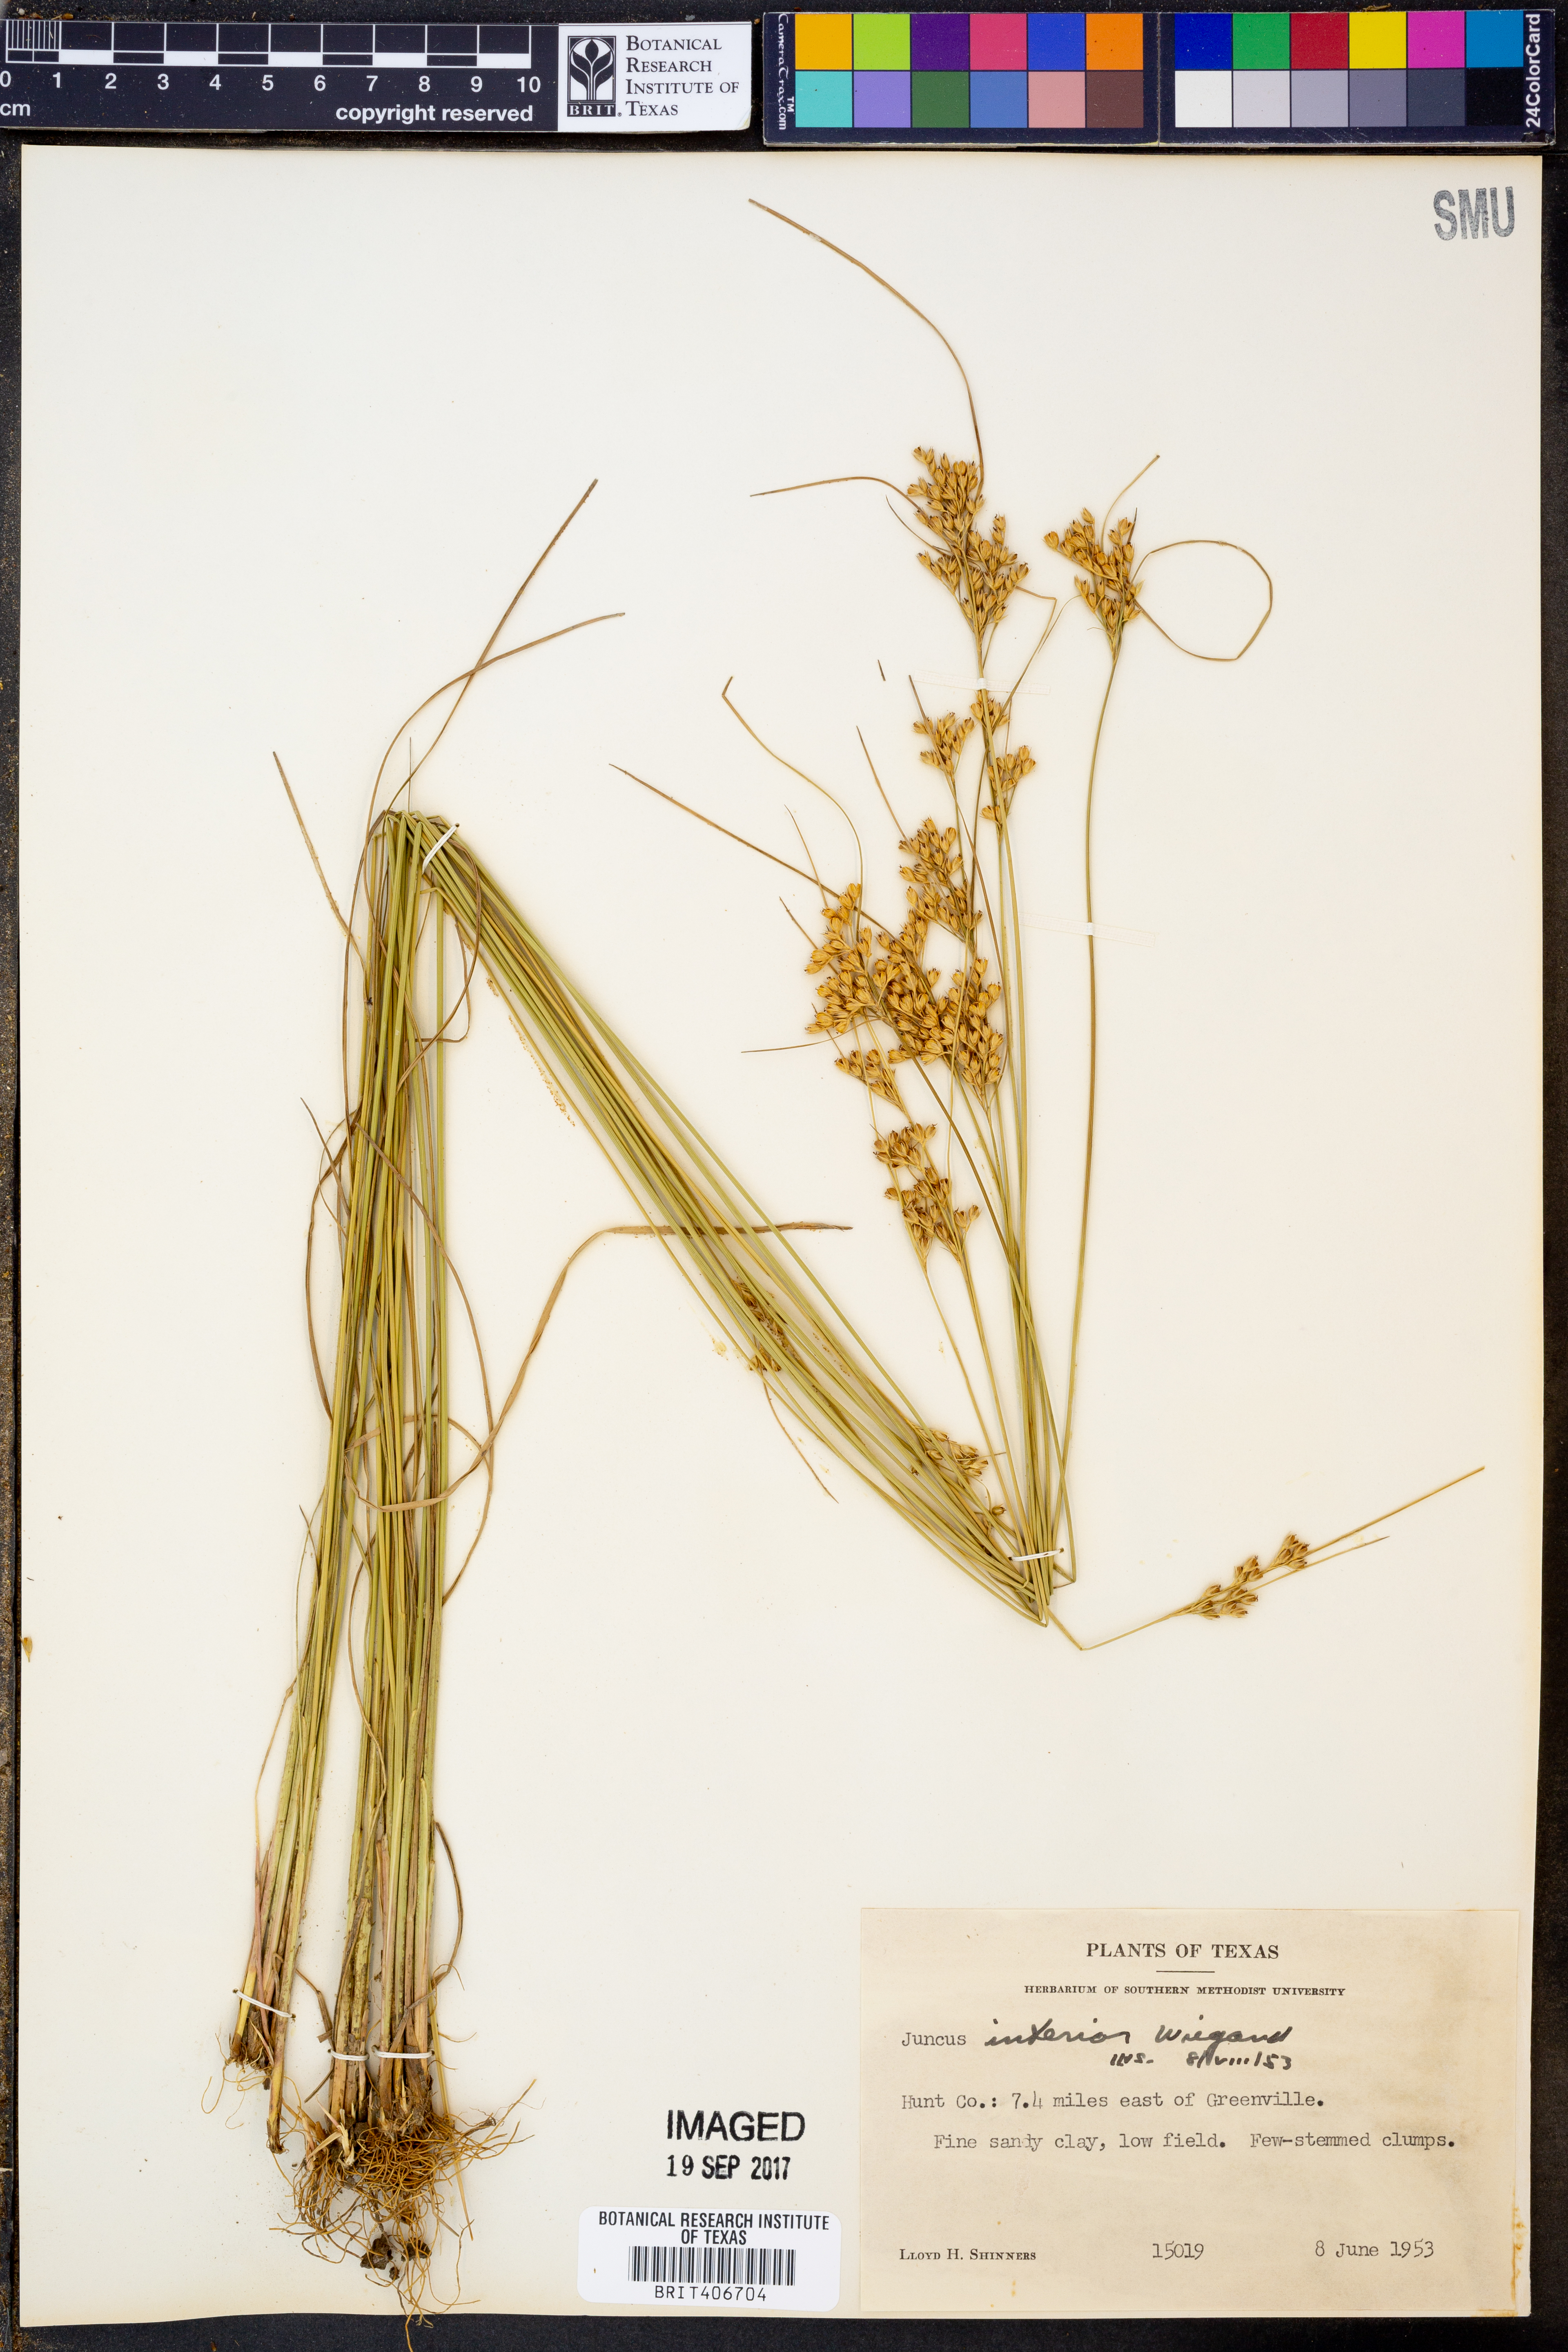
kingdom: Plantae
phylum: Tracheophyta
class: Liliopsida
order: Poales
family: Juncaceae
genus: Juncus
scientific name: Juncus interior
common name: Interior rush
